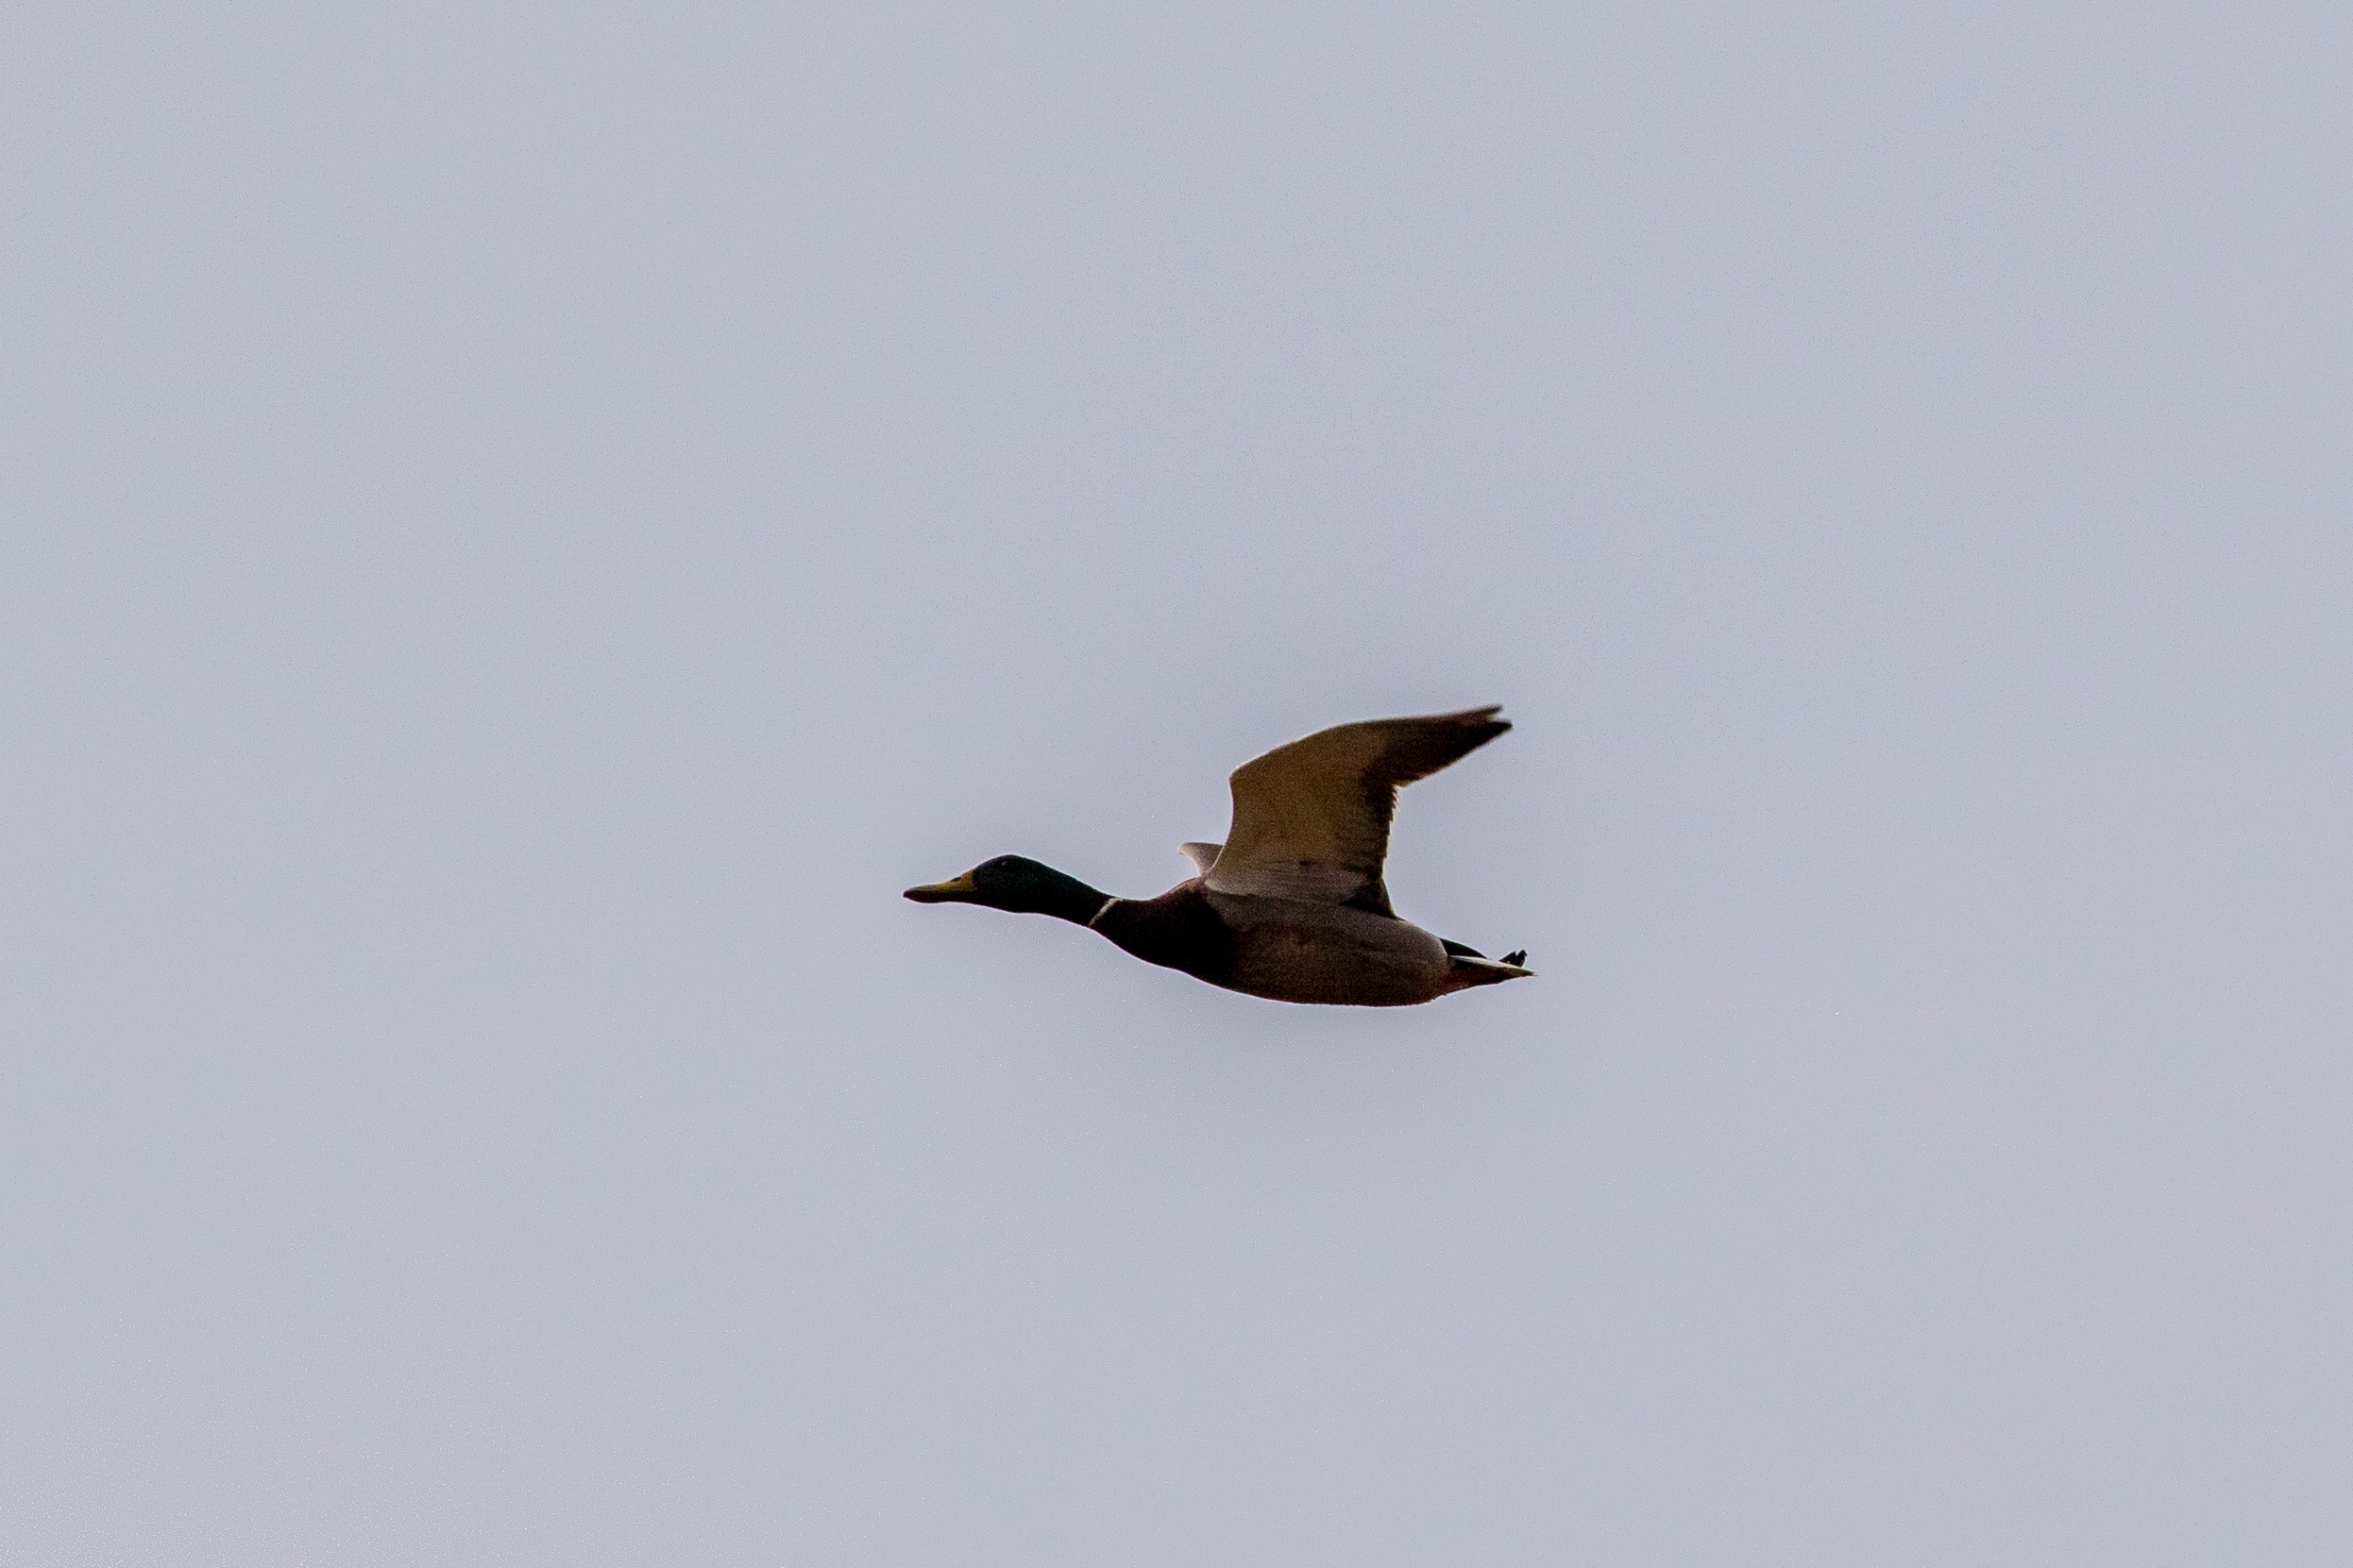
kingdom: Animalia
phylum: Chordata
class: Aves
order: Anseriformes
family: Anatidae
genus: Anas
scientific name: Anas platyrhynchos
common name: Gråand
